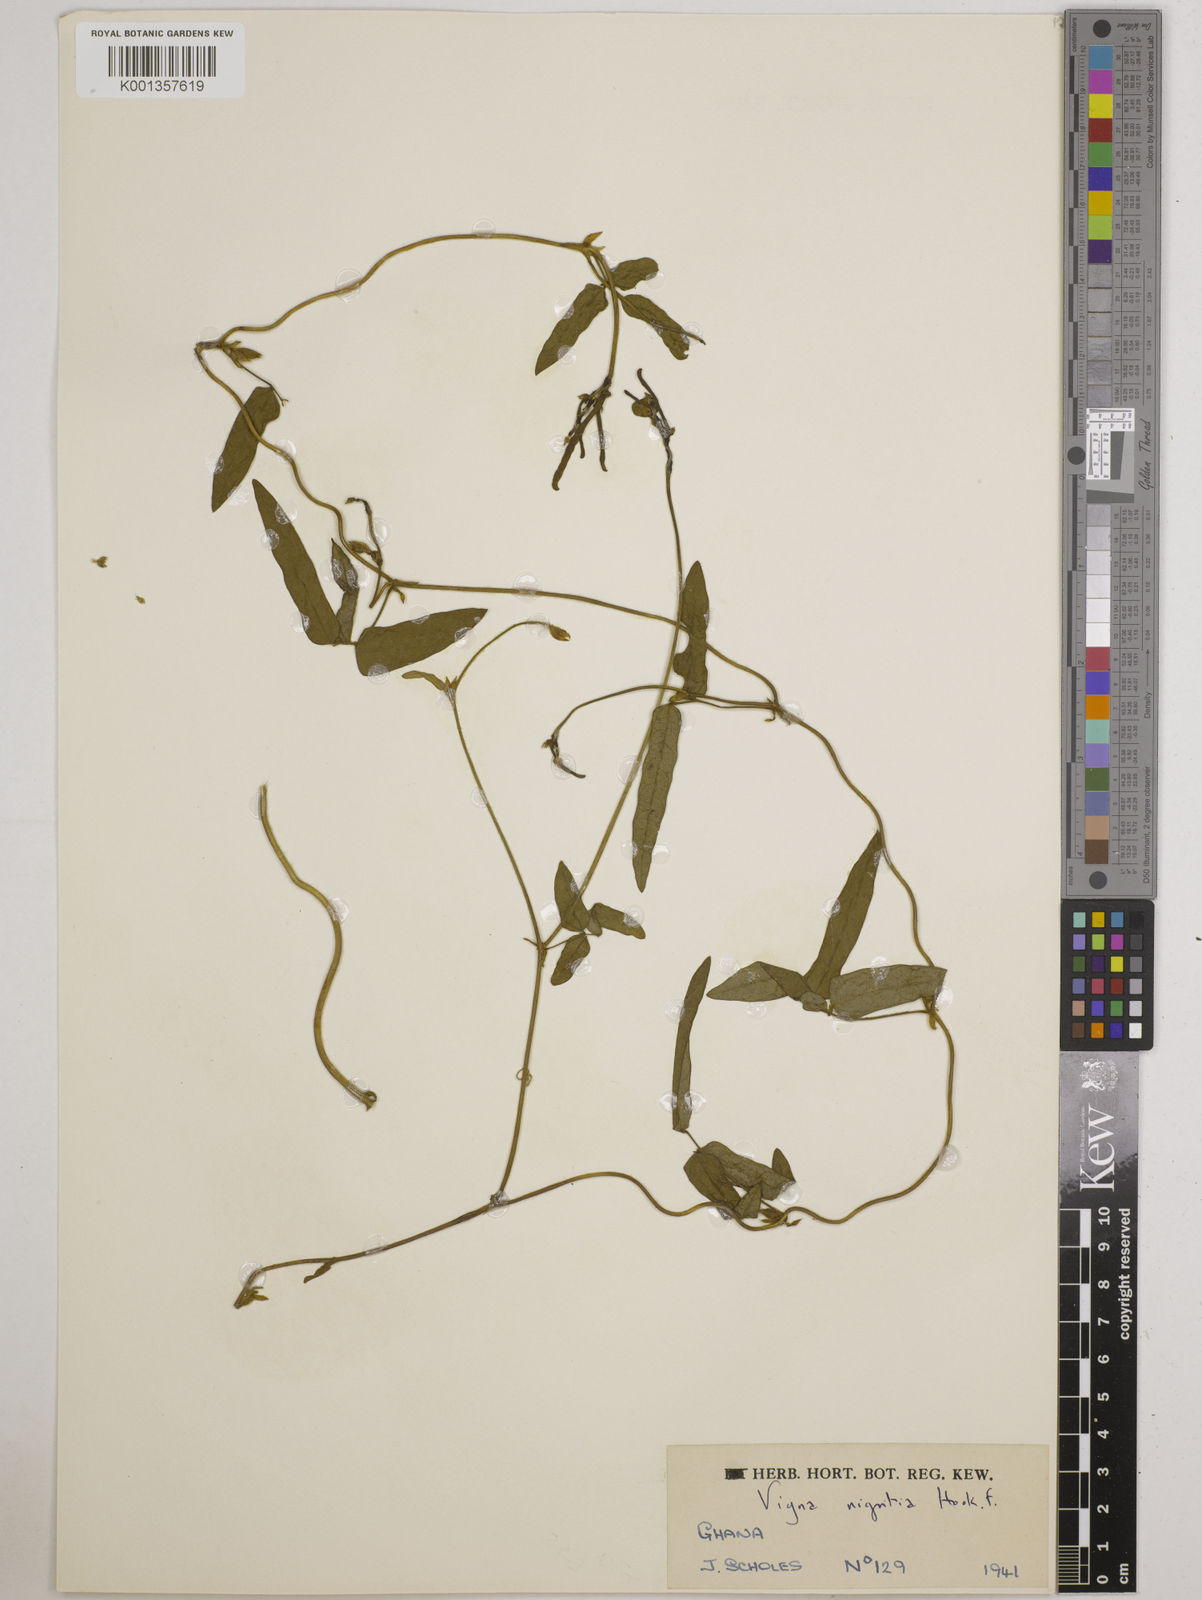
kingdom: Plantae
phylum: Tracheophyta
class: Magnoliopsida
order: Fabales
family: Fabaceae
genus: Vigna
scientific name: Vigna nigritia
